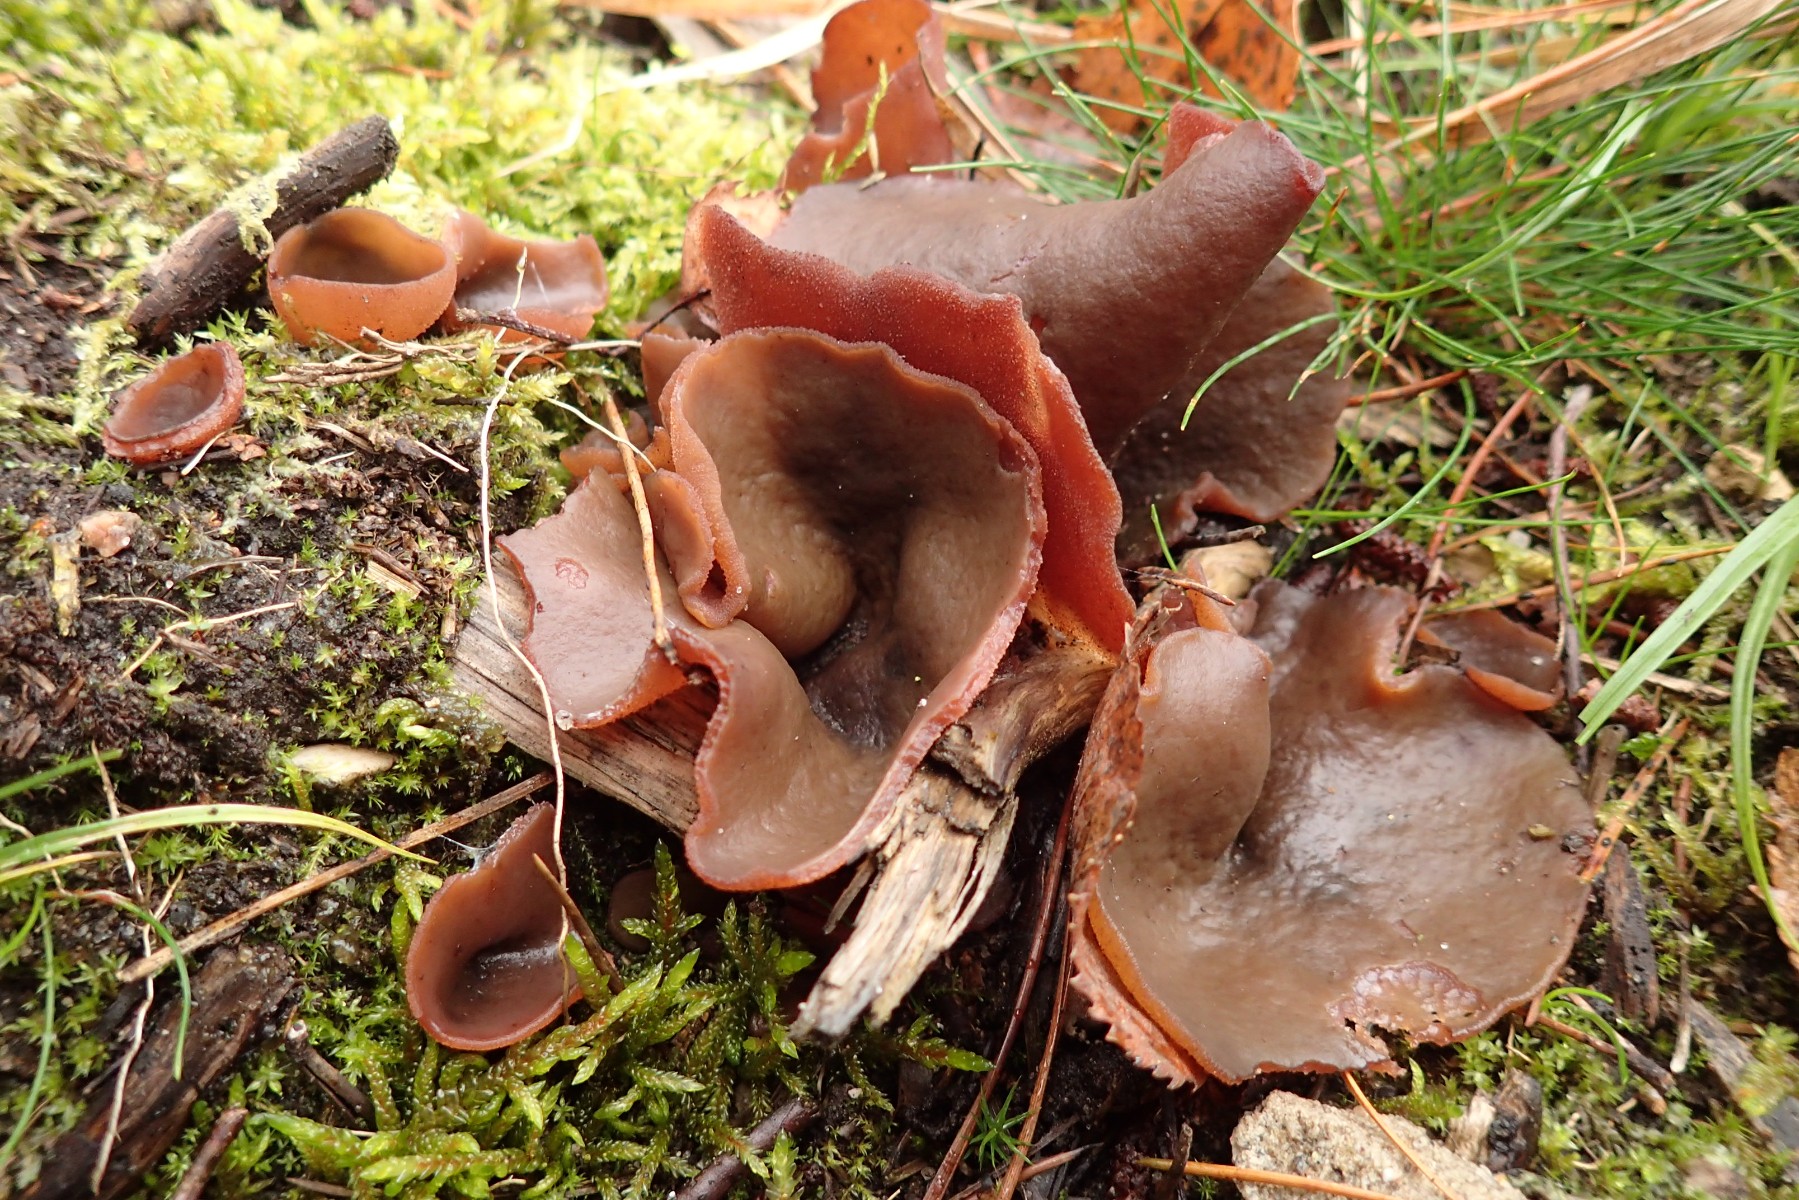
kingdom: Fungi
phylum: Ascomycota
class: Pezizomycetes
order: Pezizales
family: Pezizaceae
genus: Legaliana
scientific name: Legaliana badia
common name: leverbrun bægersvamp
